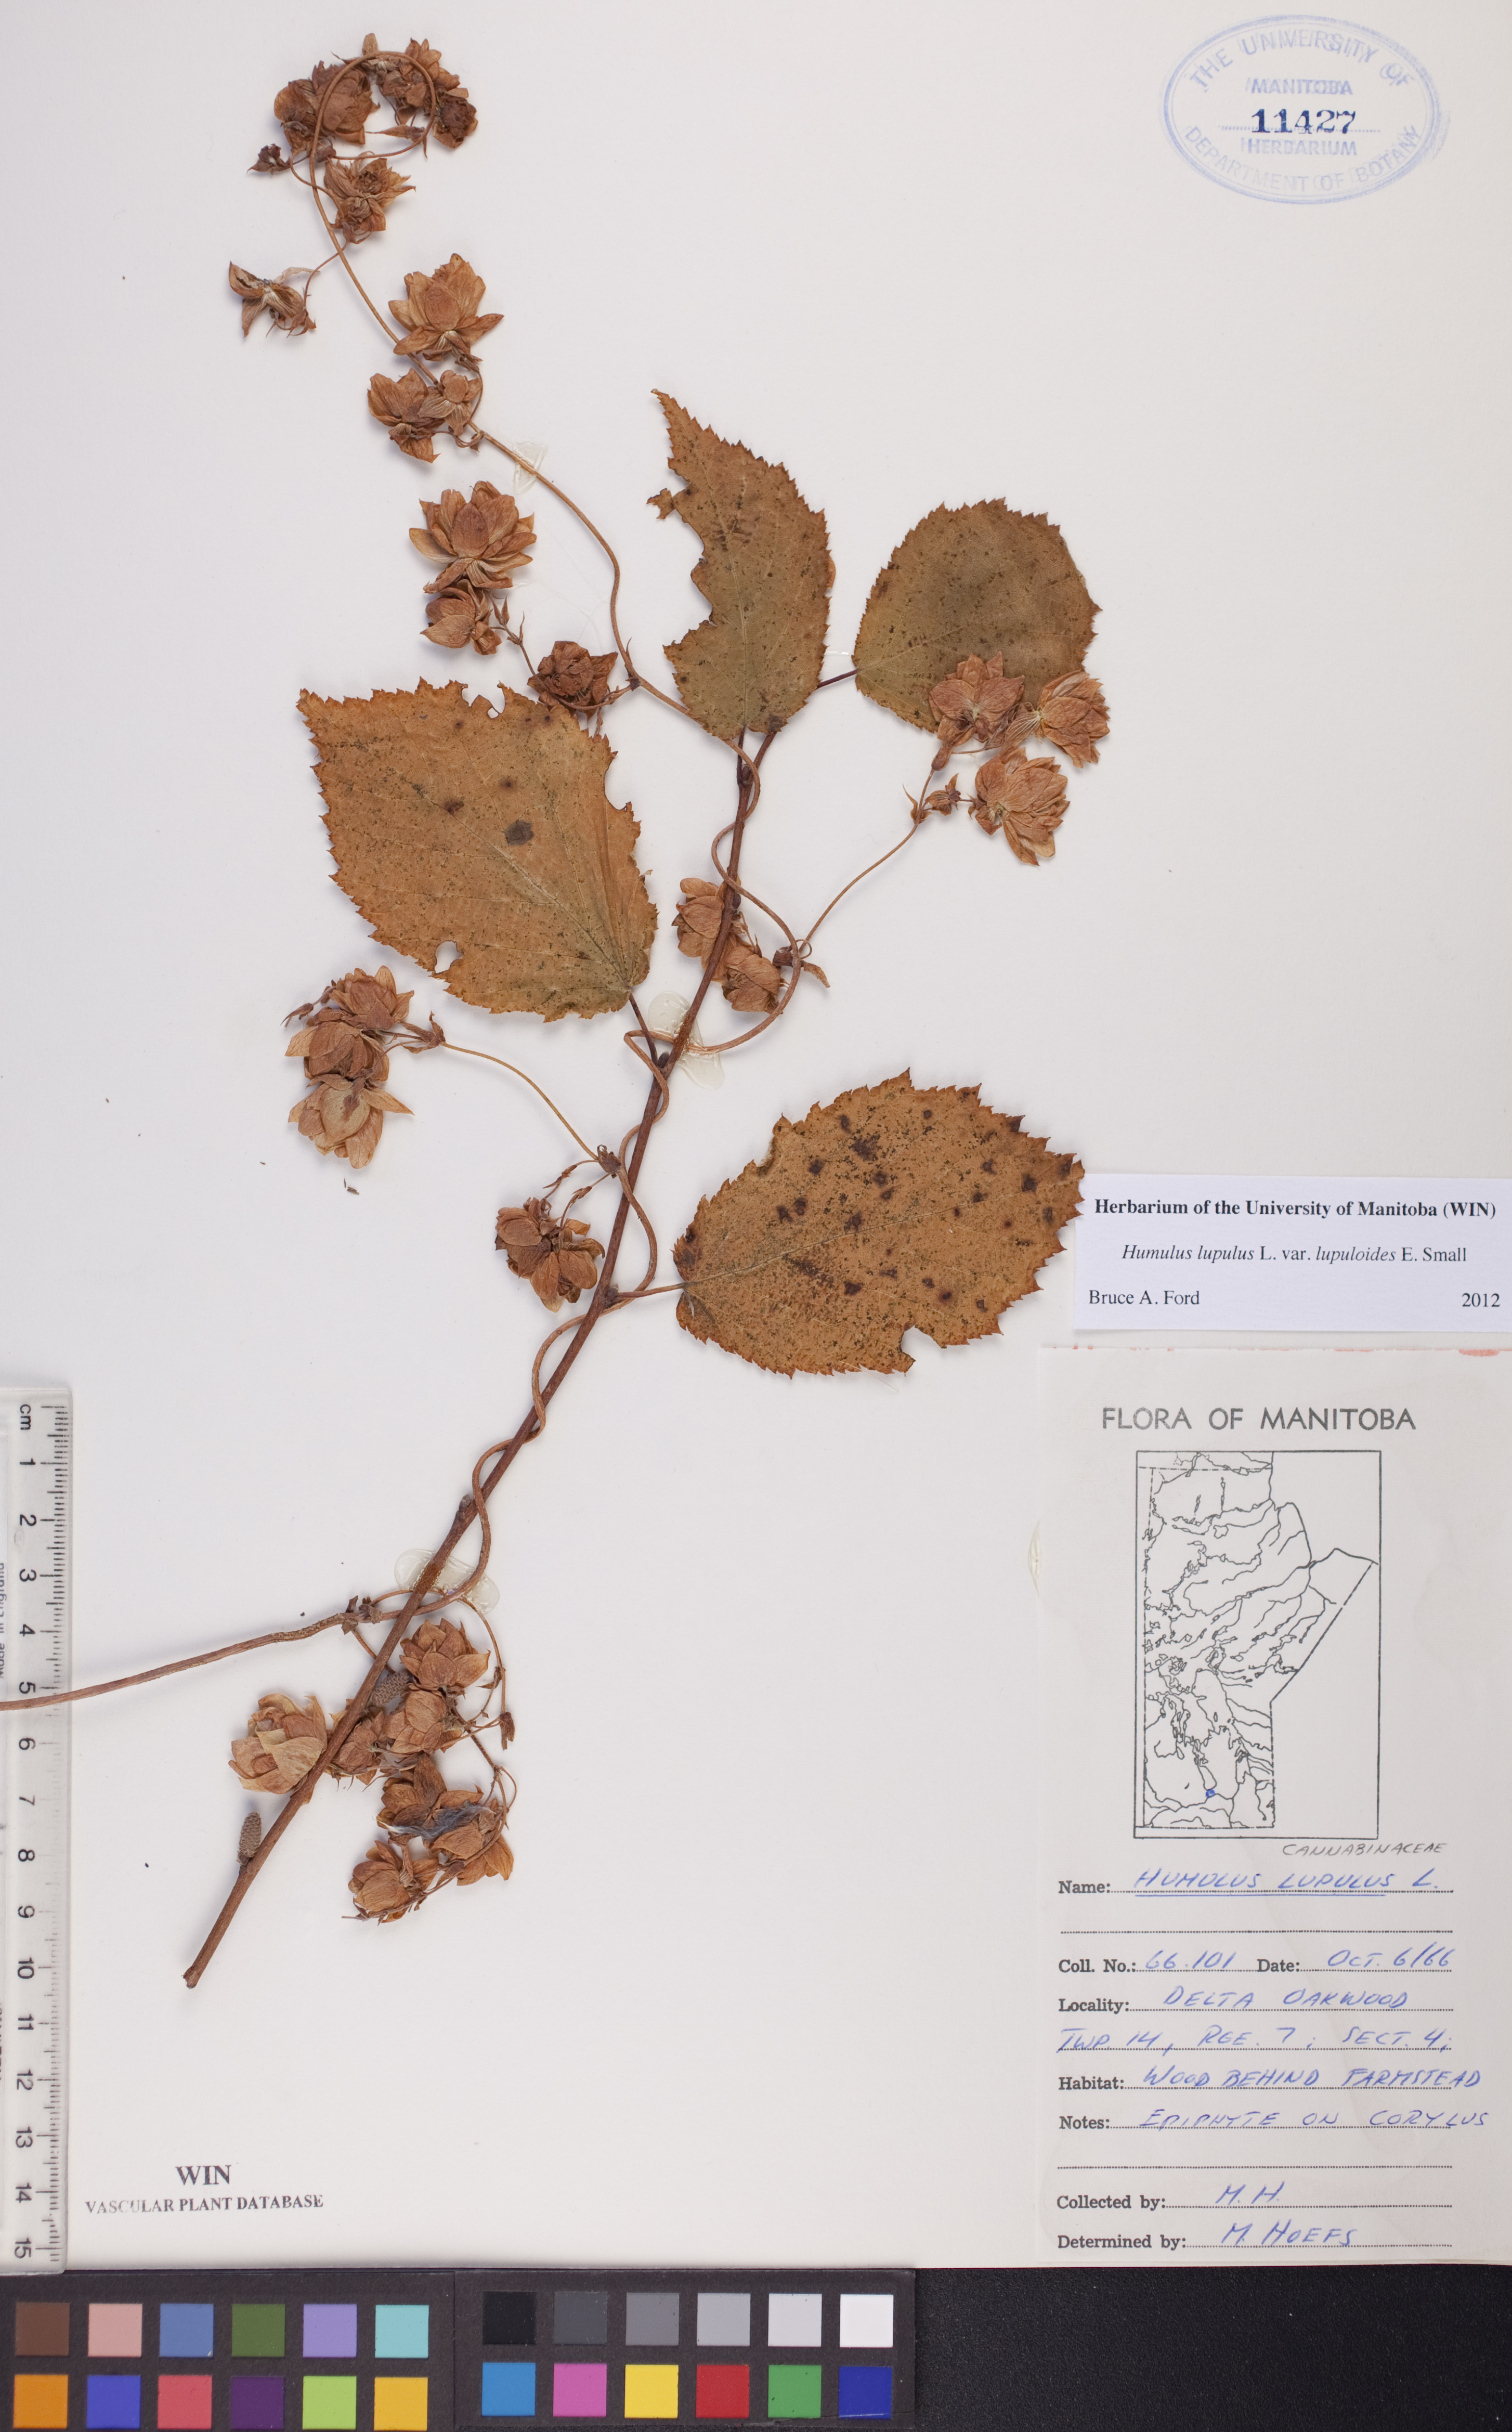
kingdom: Plantae
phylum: Tracheophyta
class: Magnoliopsida
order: Rosales
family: Cannabaceae
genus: Humulus
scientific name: Humulus lupulus
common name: Hop
